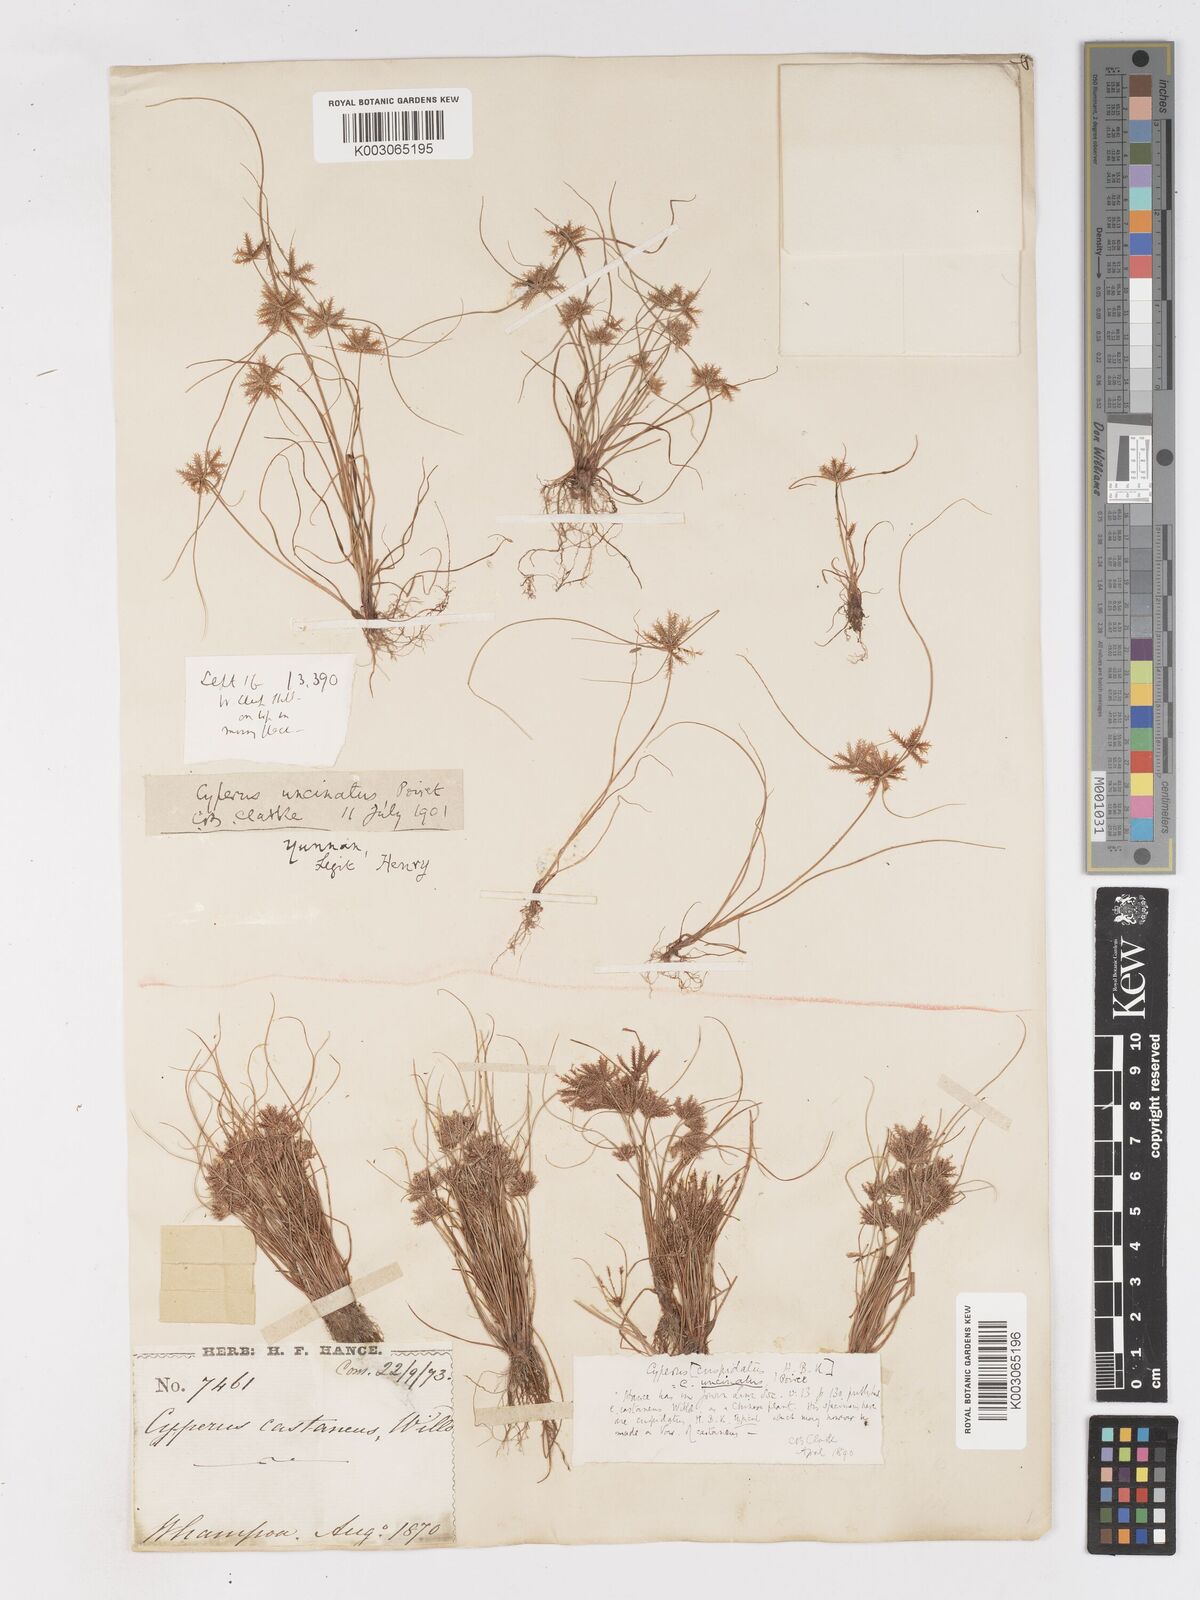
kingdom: Plantae
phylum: Tracheophyta
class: Liliopsida
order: Poales
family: Cyperaceae
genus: Cyperus
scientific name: Cyperus cuspidatus
